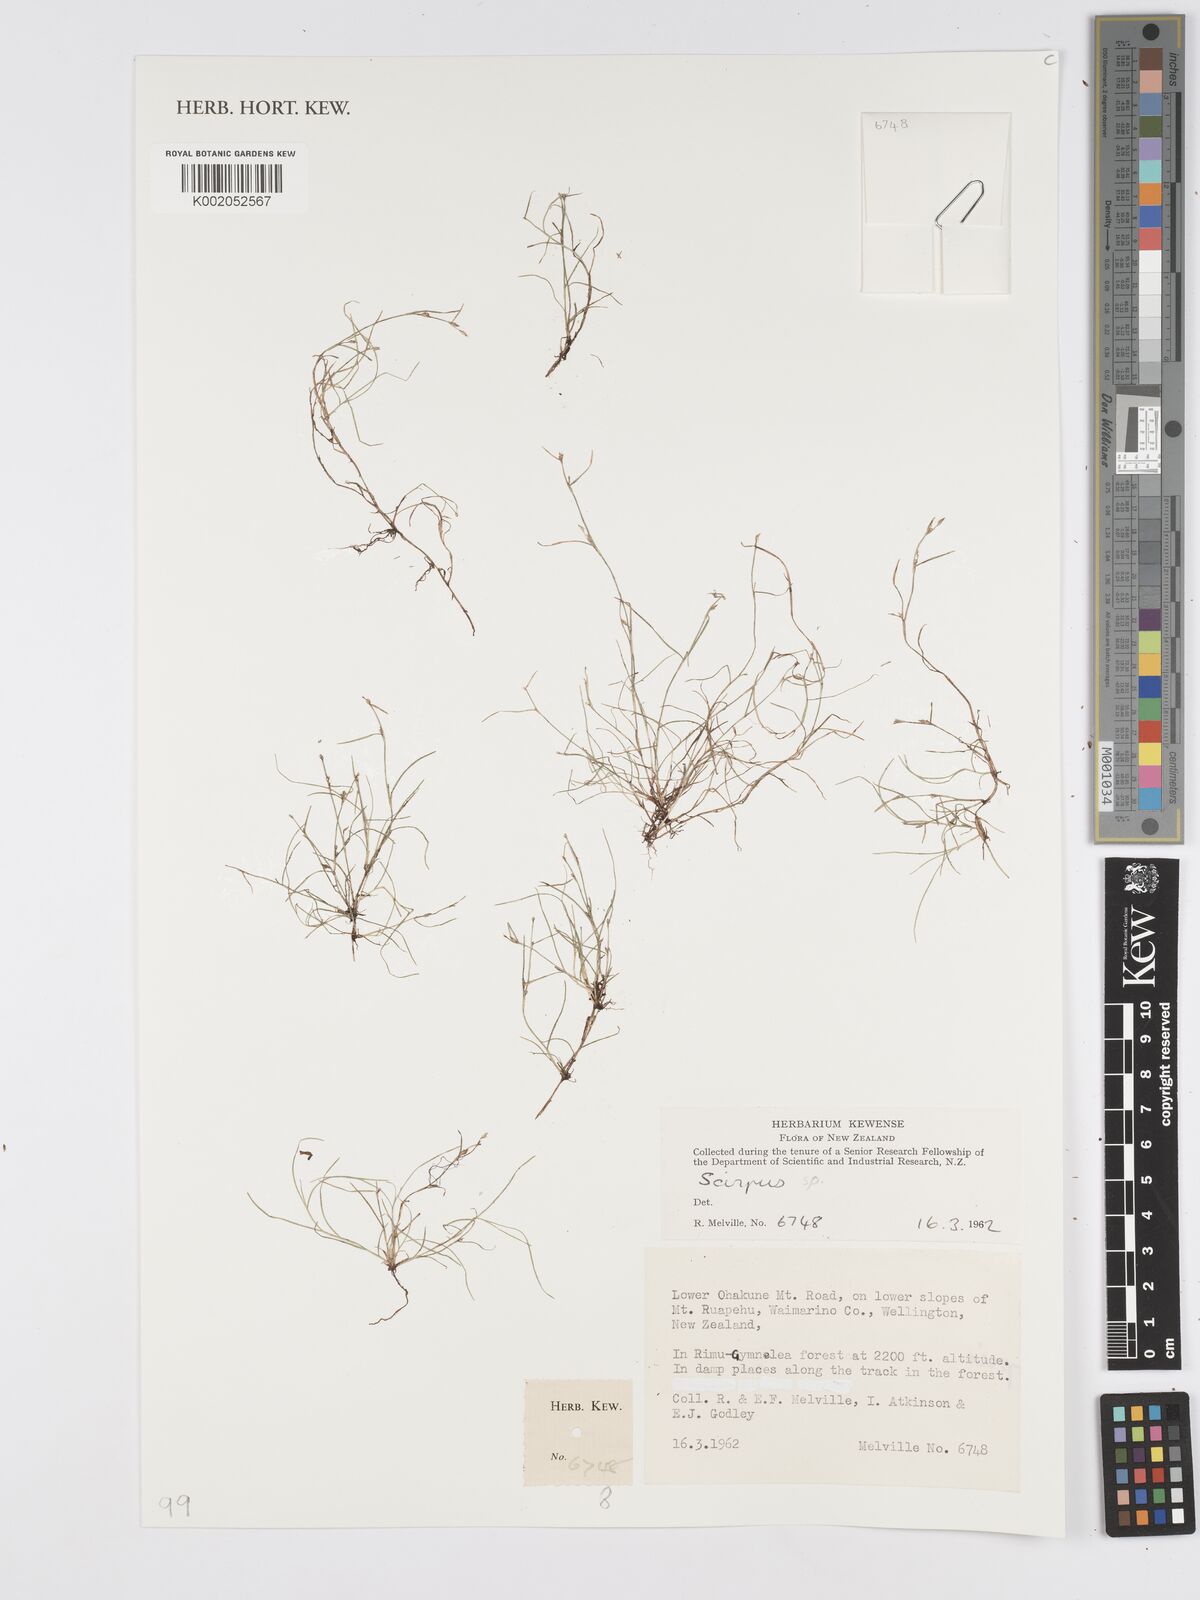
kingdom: Plantae
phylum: Tracheophyta
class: Liliopsida
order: Poales
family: Cyperaceae
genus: Scirpus
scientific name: Scirpus
